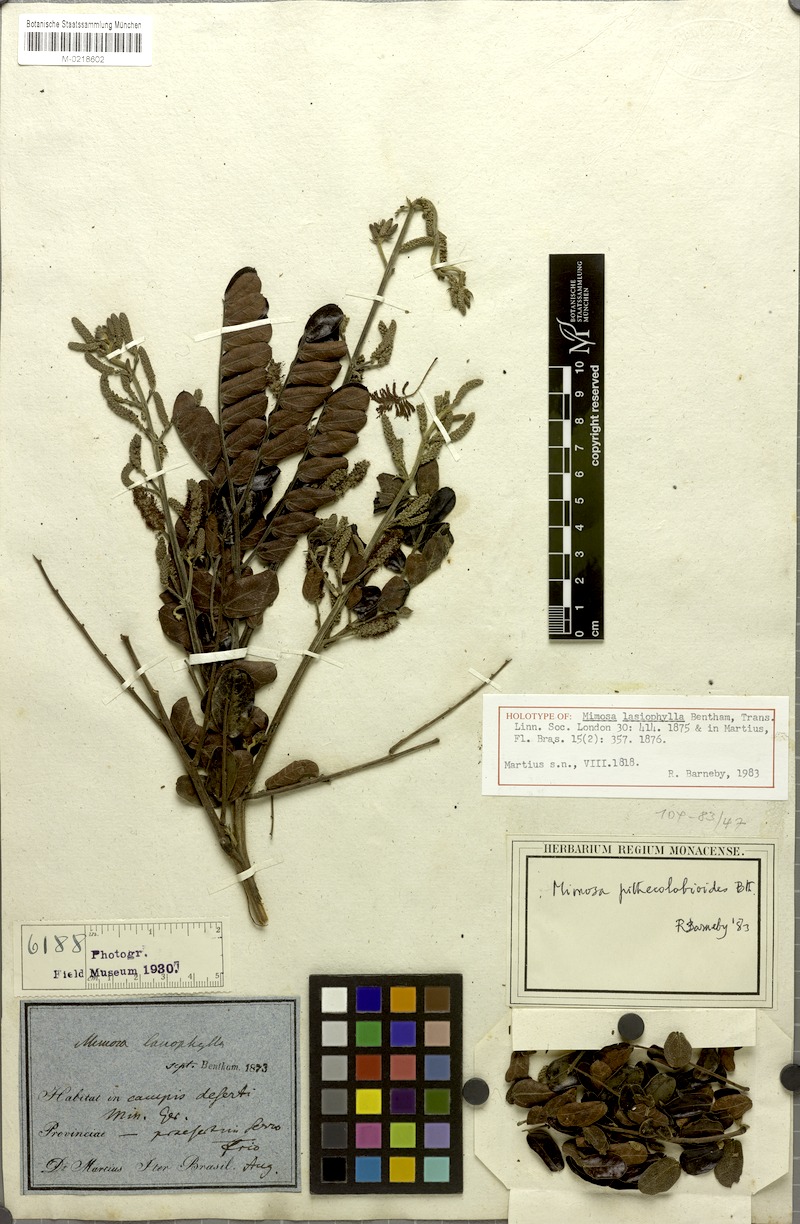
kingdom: Plantae
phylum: Tracheophyta
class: Magnoliopsida
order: Fabales
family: Fabaceae
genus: Mimosa
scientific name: Mimosa pithecolobioides
